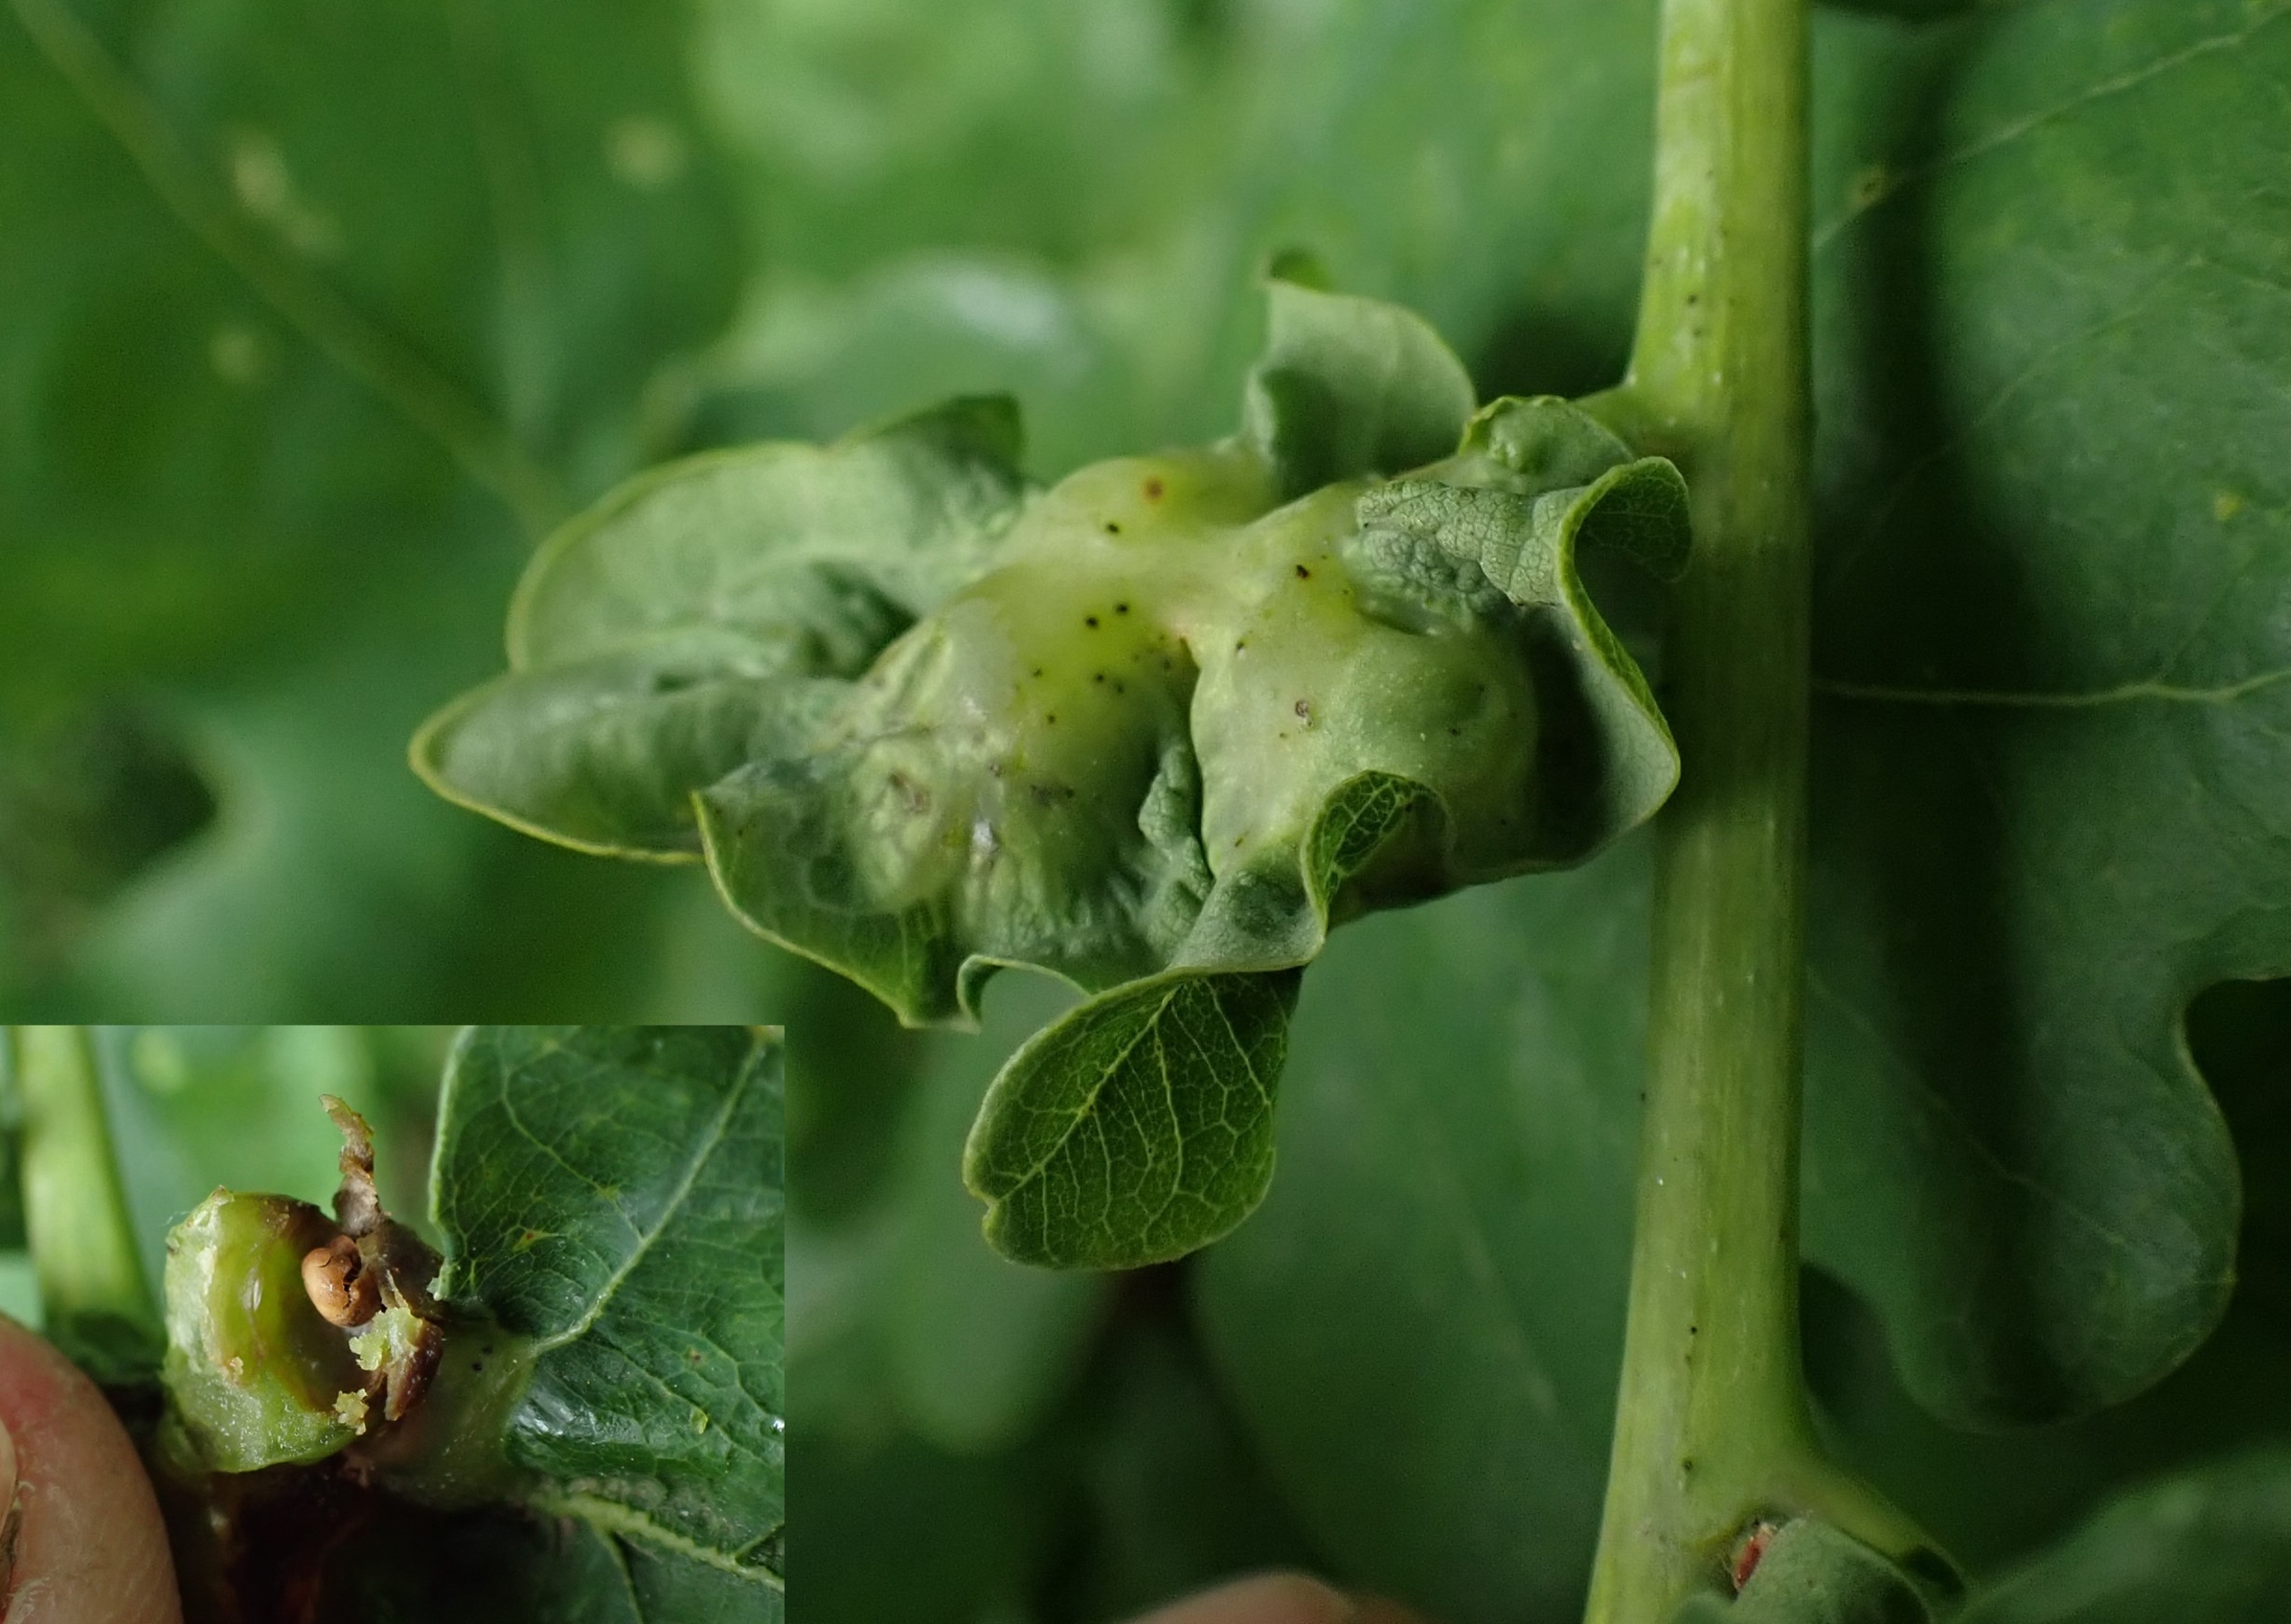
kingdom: Animalia
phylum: Arthropoda
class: Insecta
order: Hymenoptera
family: Cynipidae
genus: Andricus
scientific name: Andricus curvator
